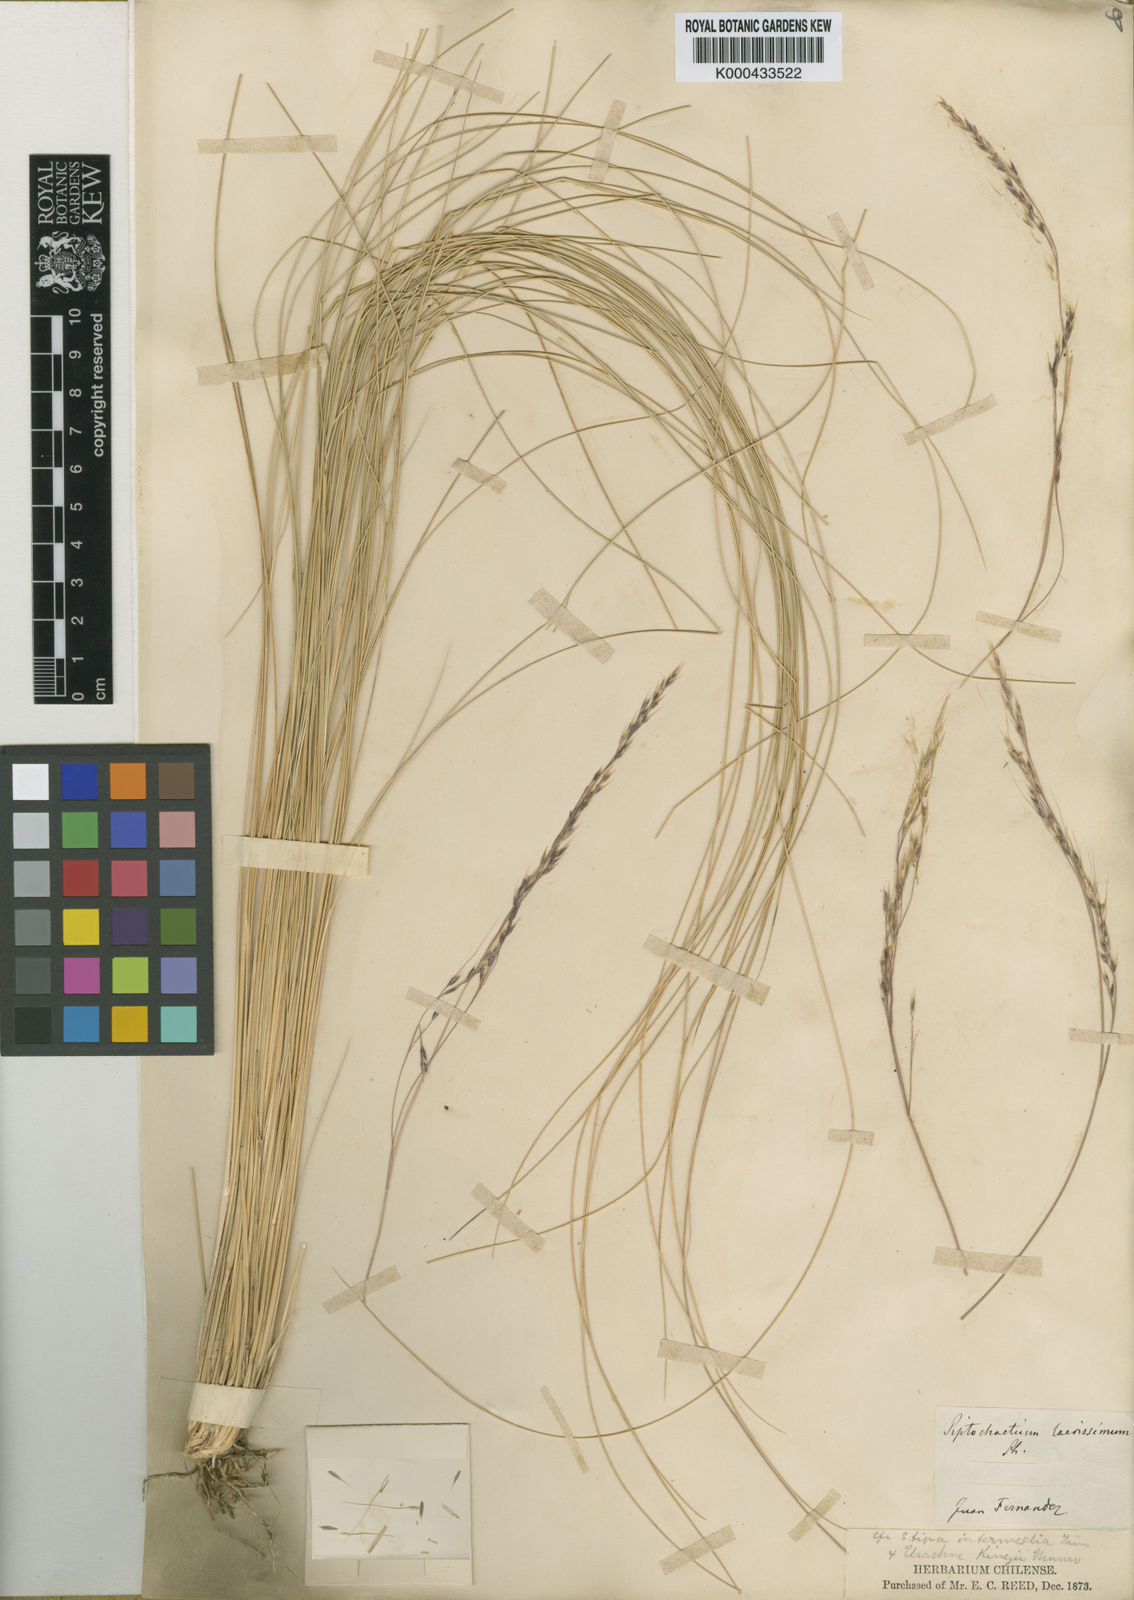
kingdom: Plantae
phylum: Tracheophyta
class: Liliopsida
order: Poales
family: Poaceae
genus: Nassella
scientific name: Nassella laevissima
